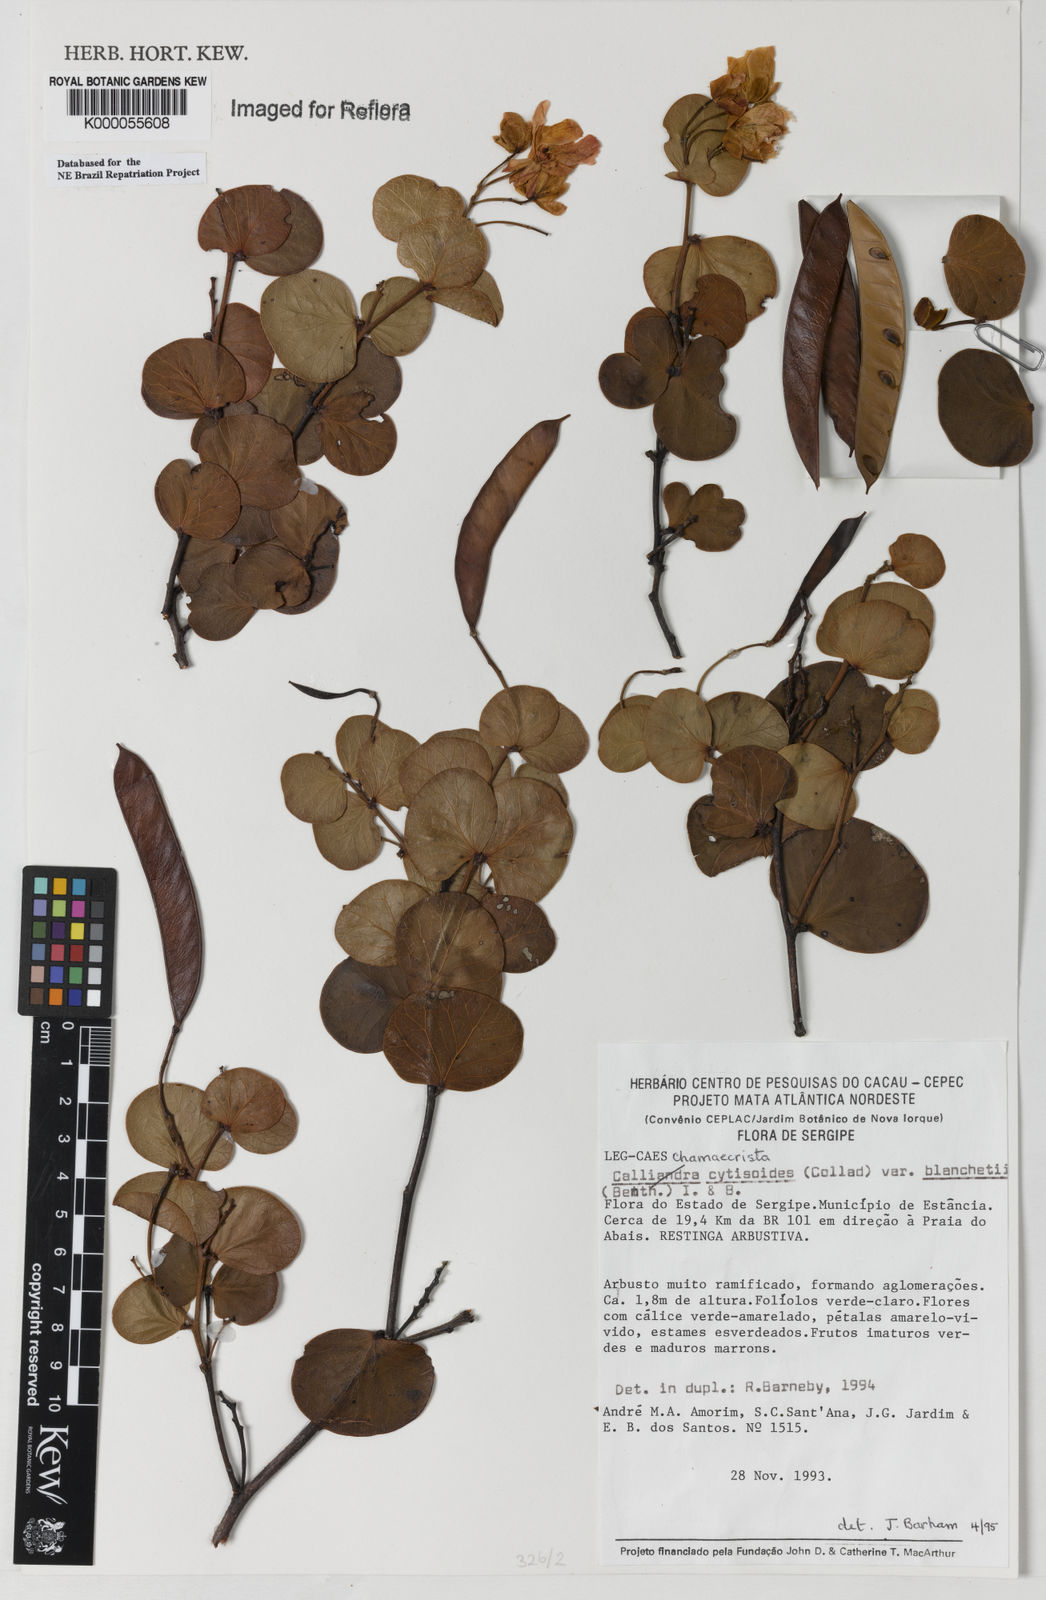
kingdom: Plantae
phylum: Tracheophyta
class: Magnoliopsida
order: Fabales
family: Fabaceae
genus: Chamaecrista
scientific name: Chamaecrista cytisoides
